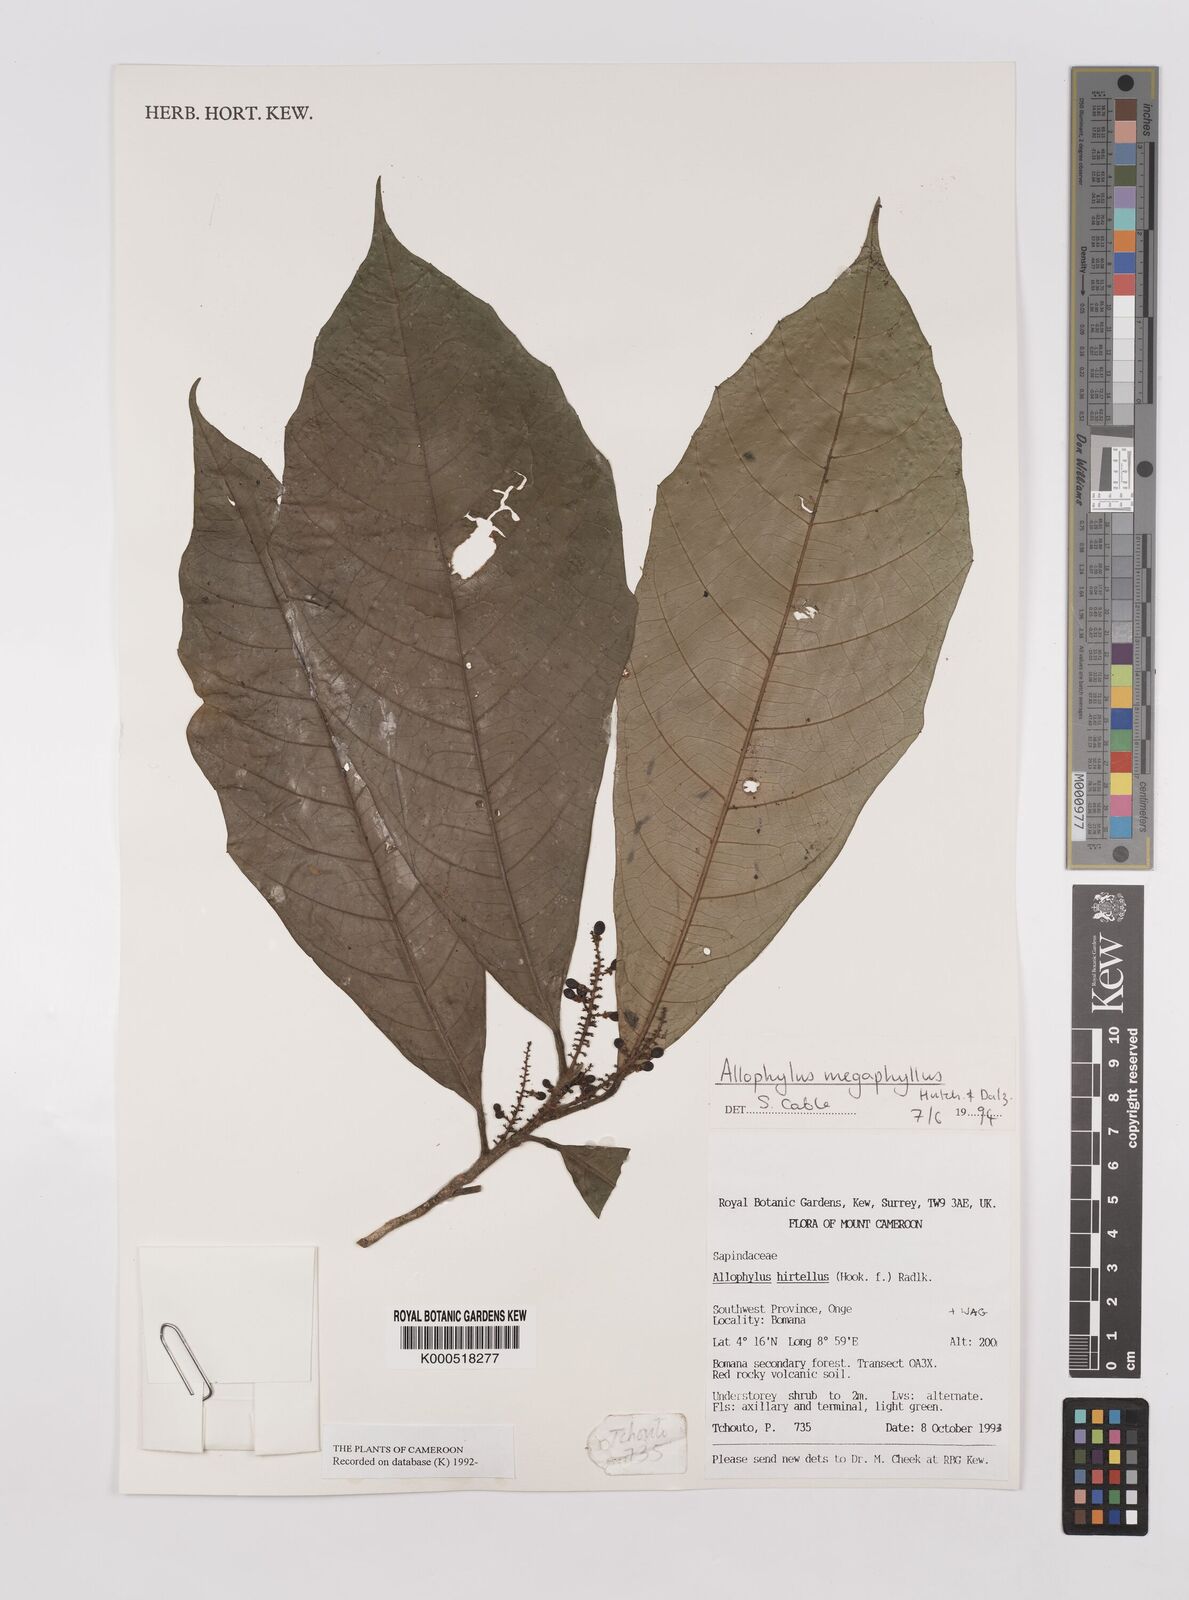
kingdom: Plantae
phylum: Tracheophyta
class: Magnoliopsida
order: Sapindales
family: Sapindaceae
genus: Allophylus
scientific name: Allophylus megaphyllus
